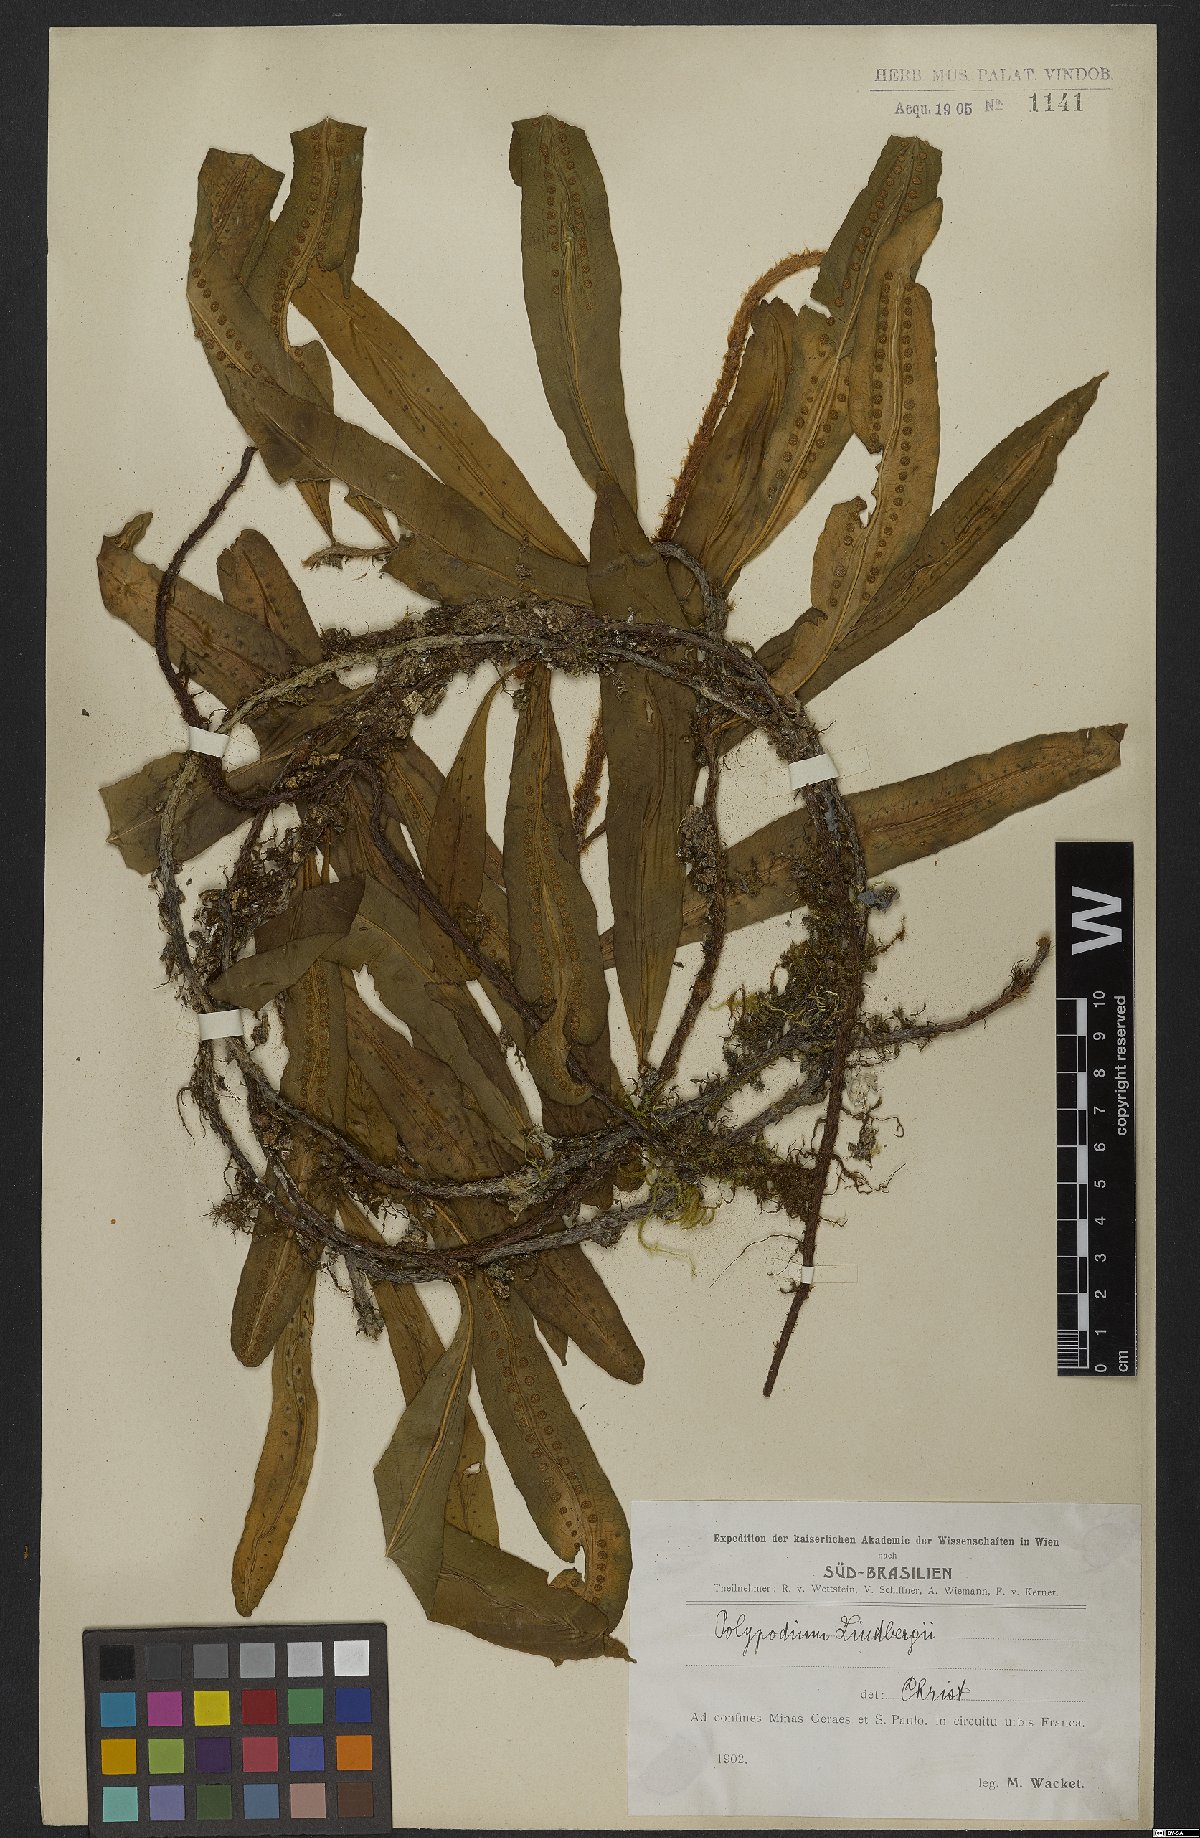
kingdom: Plantae
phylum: Tracheophyta
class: Polypodiopsida
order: Polypodiales
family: Polypodiaceae
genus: Microgramma
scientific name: Microgramma lindbergii
